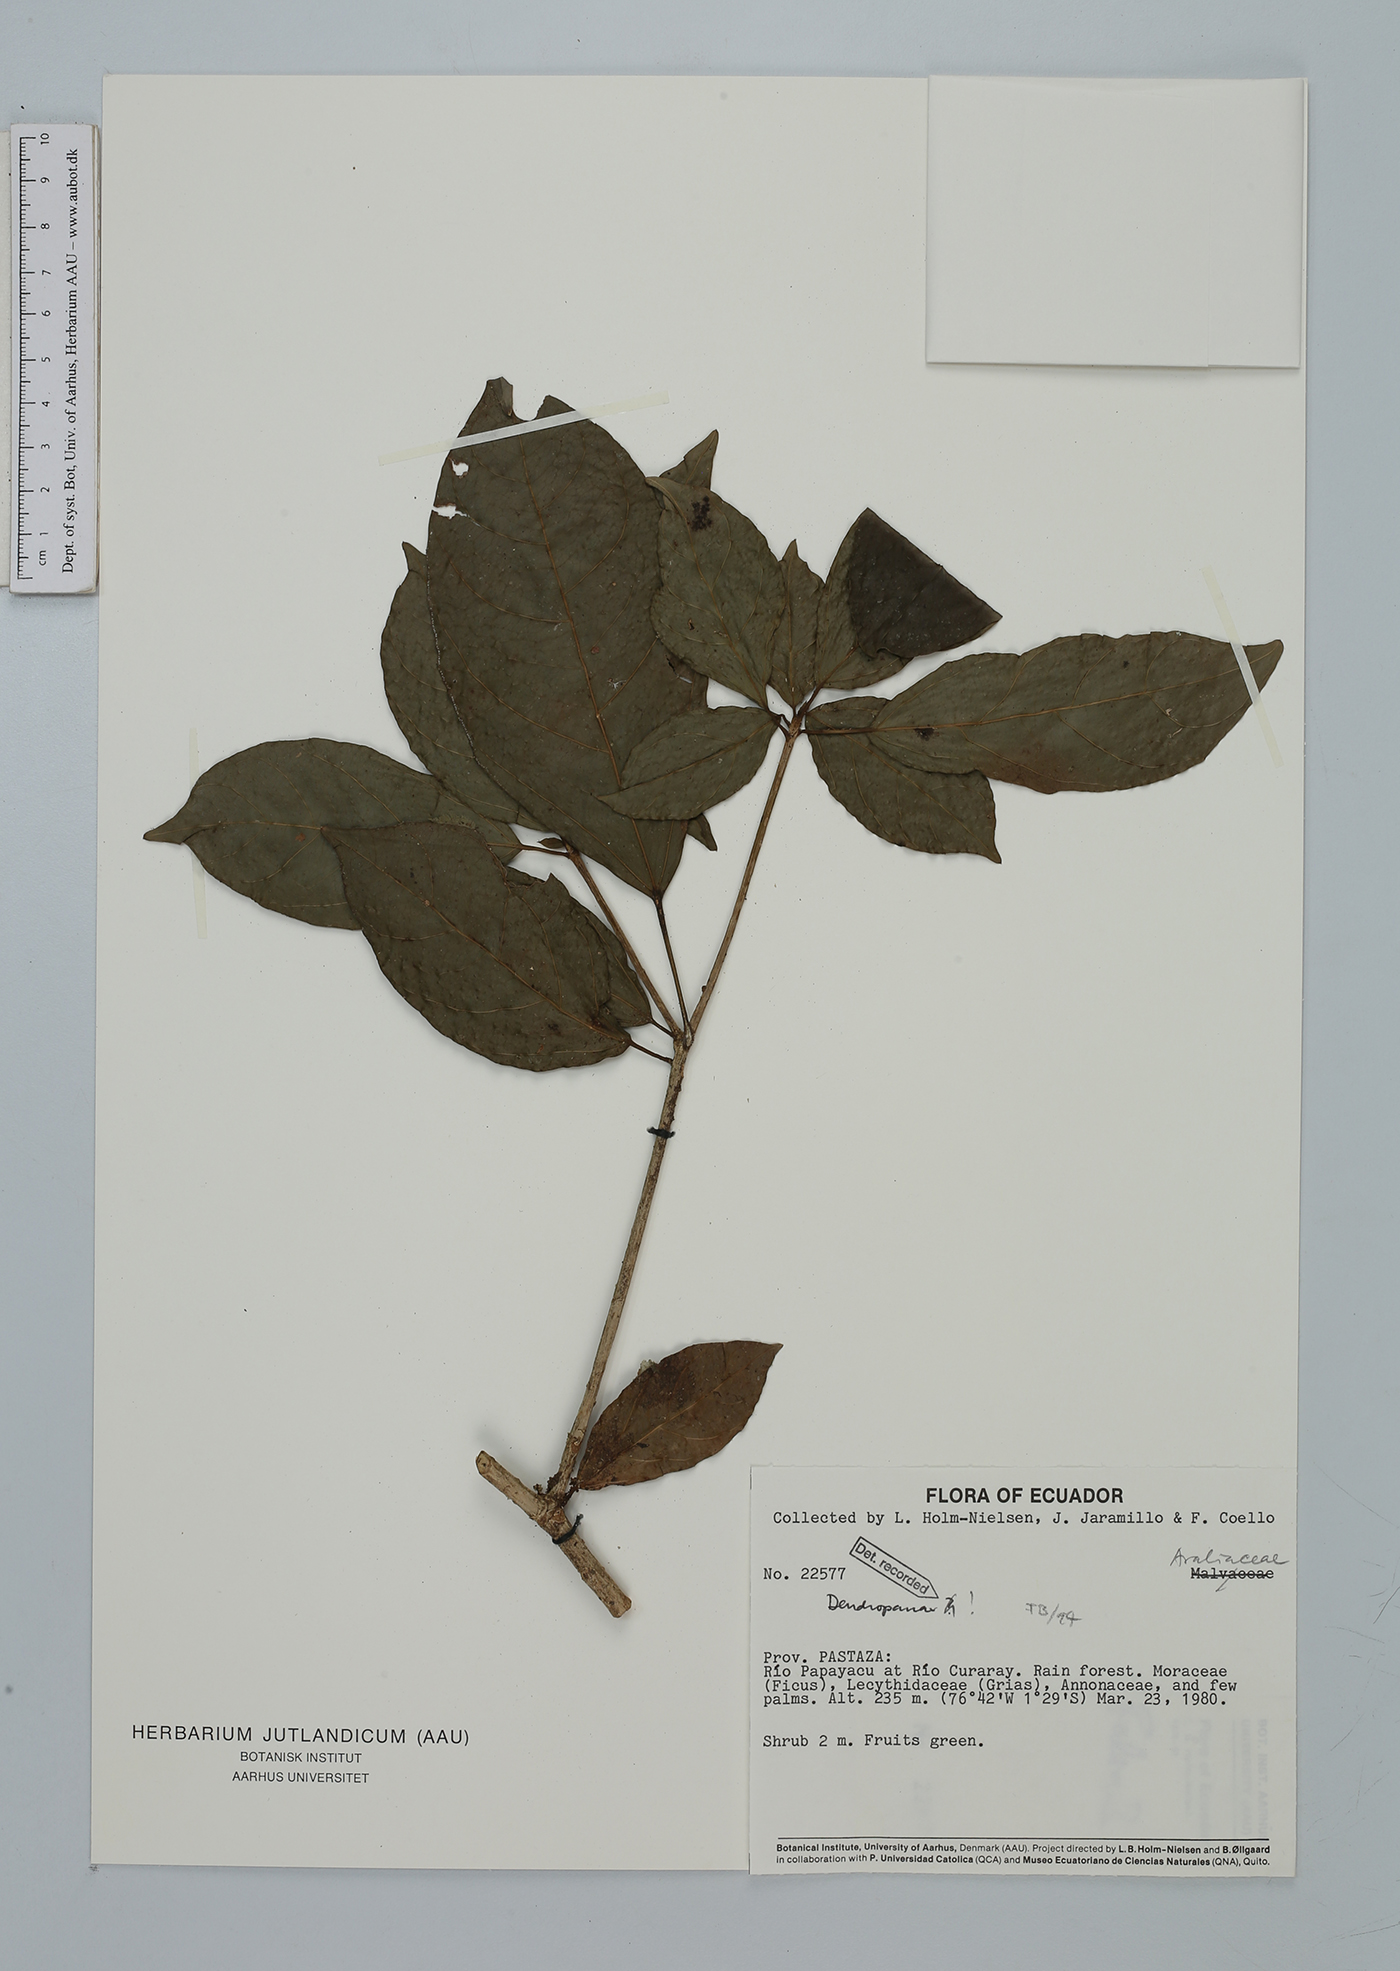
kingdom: Plantae
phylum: Tracheophyta
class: Magnoliopsida
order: Apiales
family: Araliaceae
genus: Dendropanax
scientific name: Dendropanax
